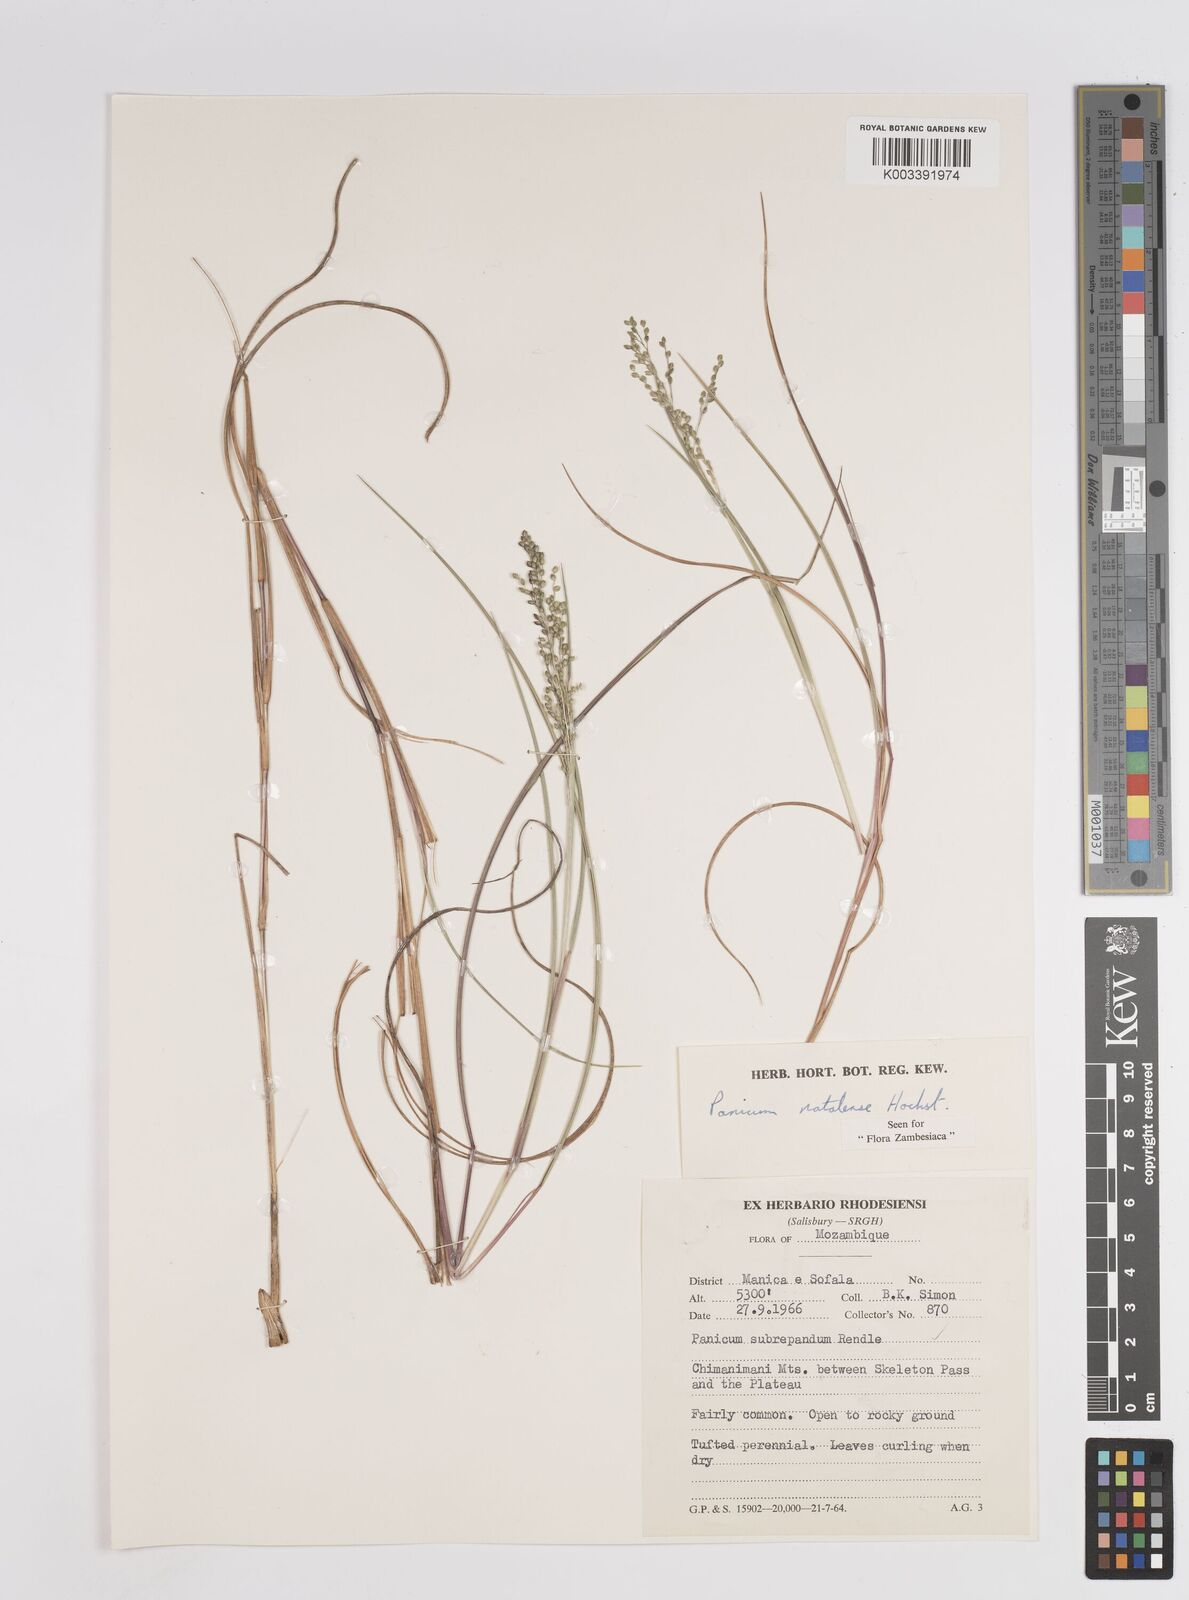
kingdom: Plantae
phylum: Tracheophyta
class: Liliopsida
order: Poales
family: Poaceae
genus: Trichanthecium
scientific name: Trichanthecium natalense
